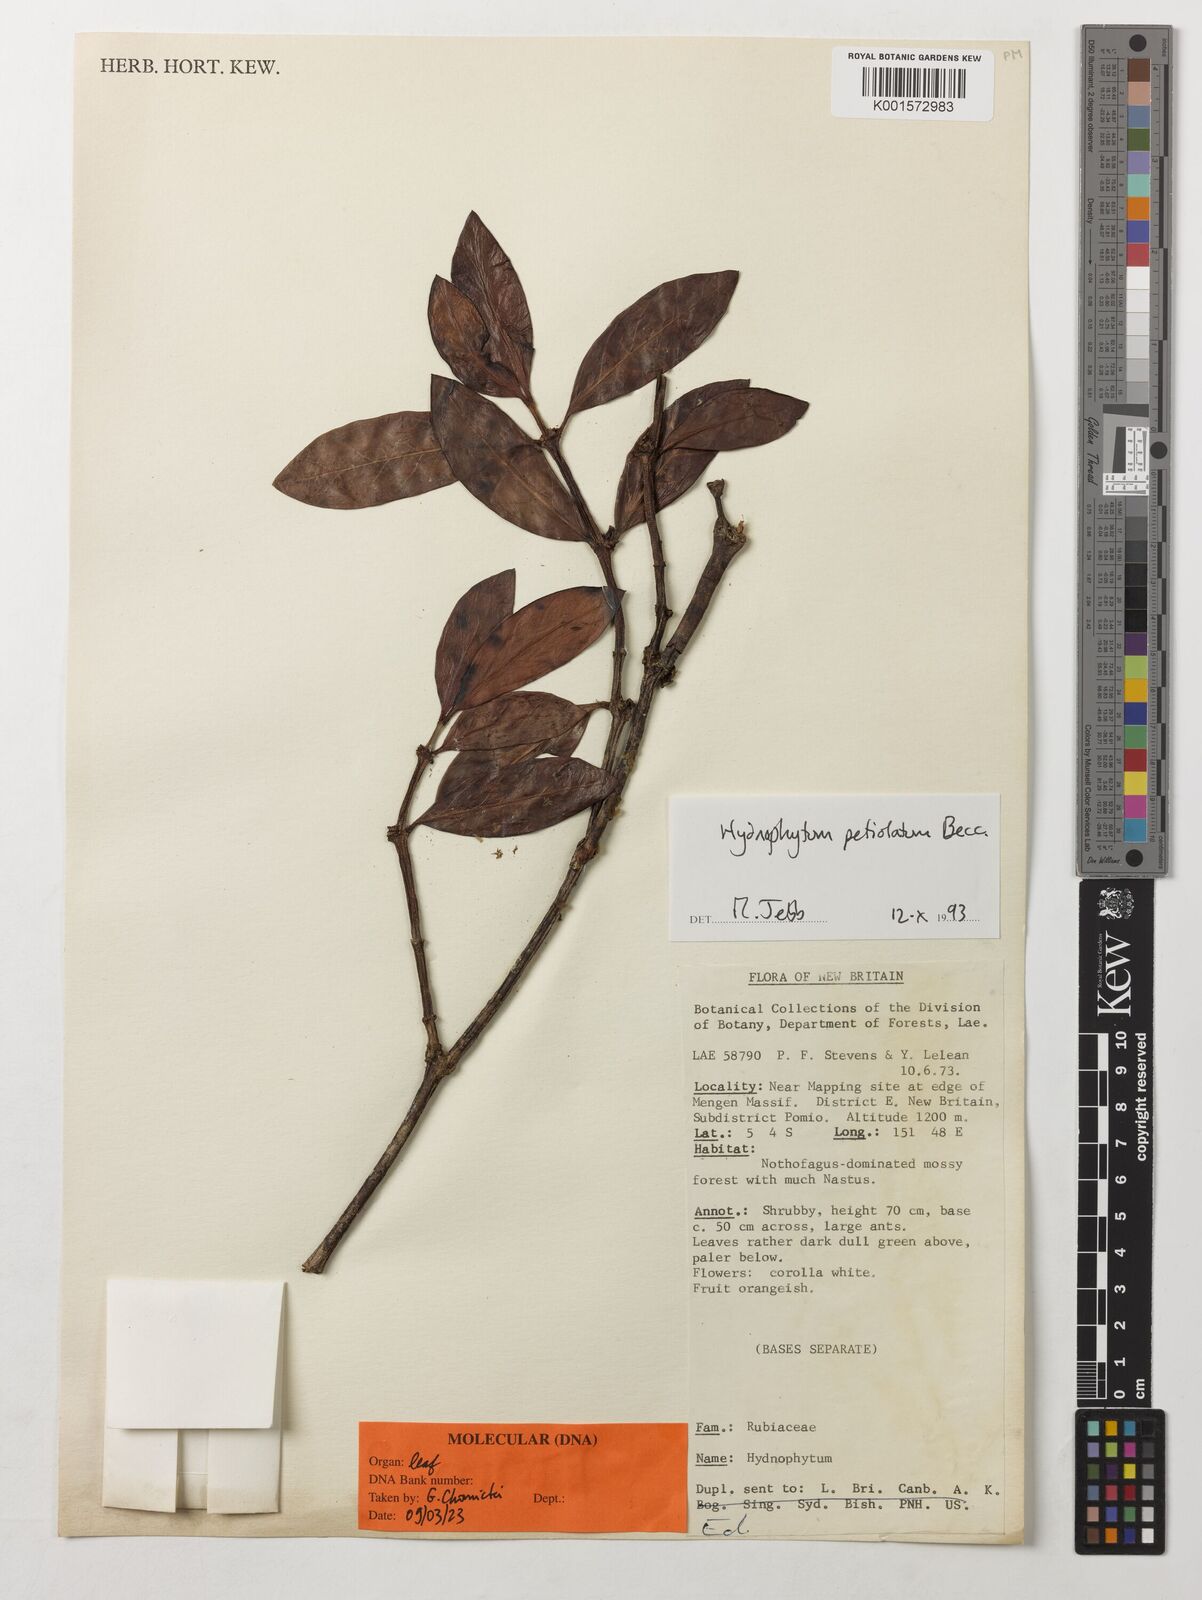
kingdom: Plantae
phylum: Tracheophyta
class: Magnoliopsida
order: Gentianales
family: Rubiaceae
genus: Hydnophytum
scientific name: Hydnophytum petiolatum
